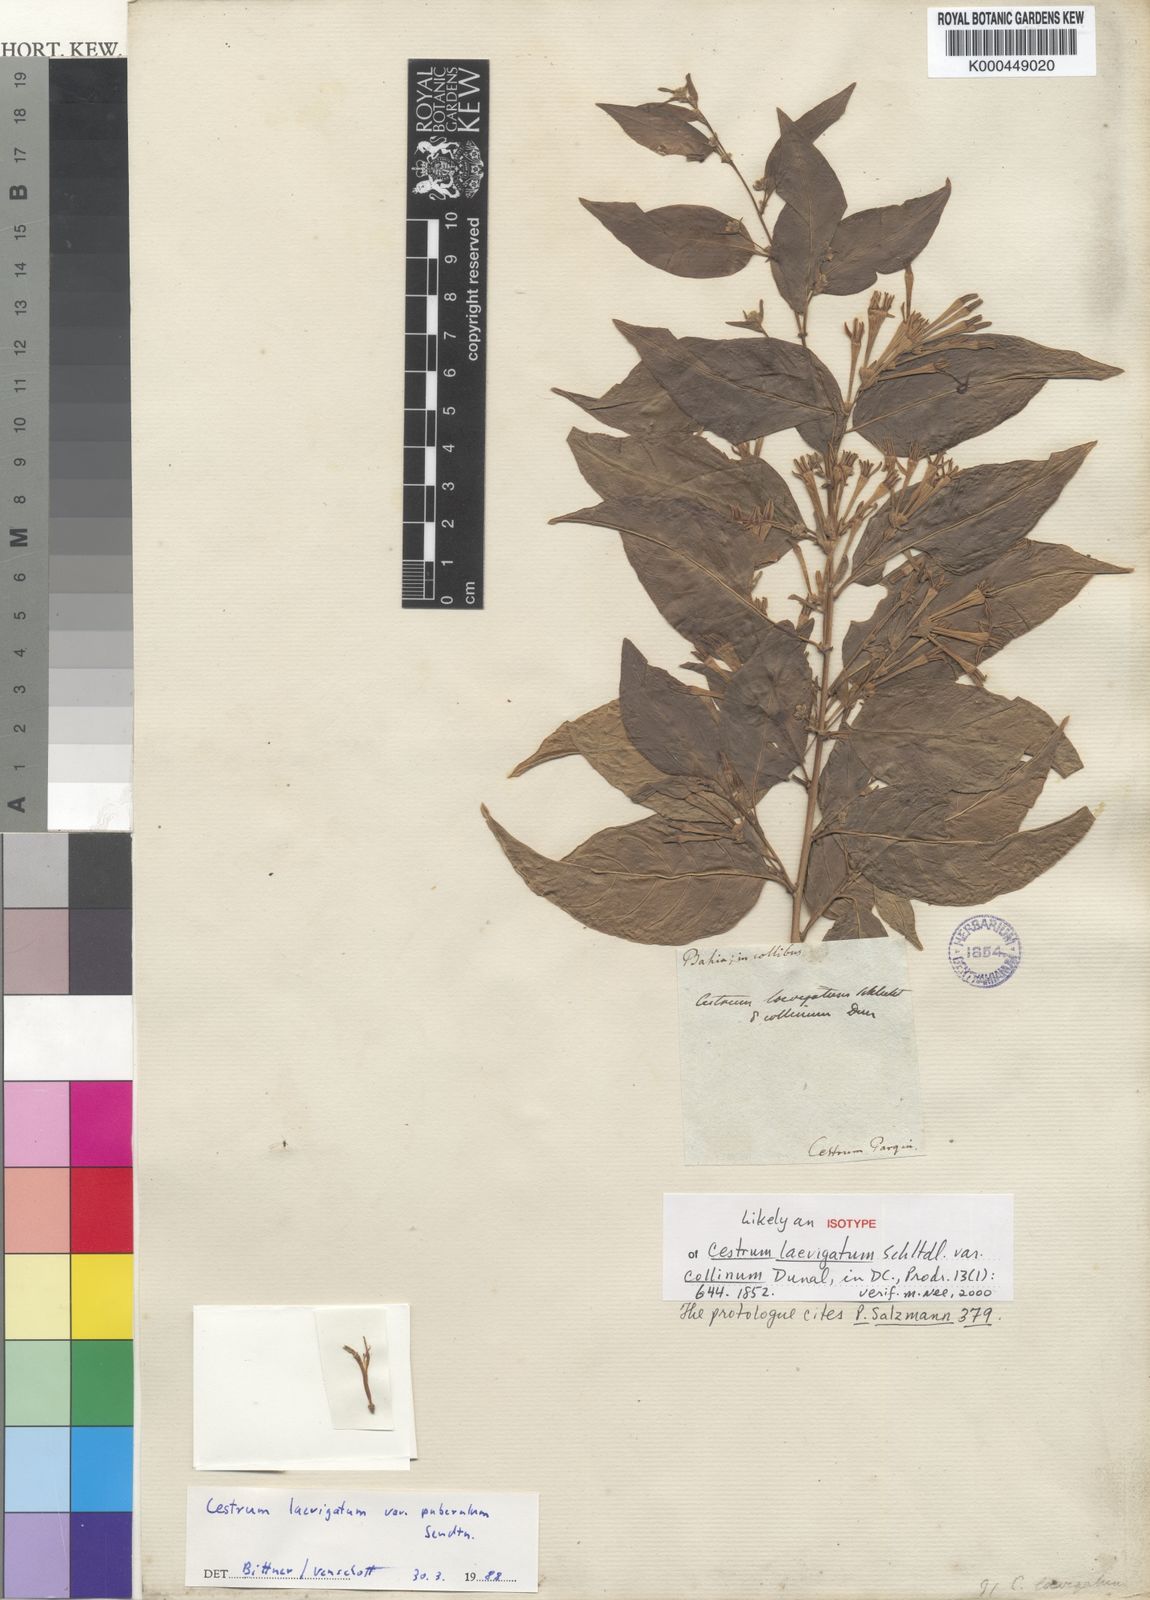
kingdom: Plantae
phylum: Tracheophyta
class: Magnoliopsida
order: Solanales
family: Solanaceae
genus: Cestrum
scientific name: Cestrum laevigatum
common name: Inkberry
